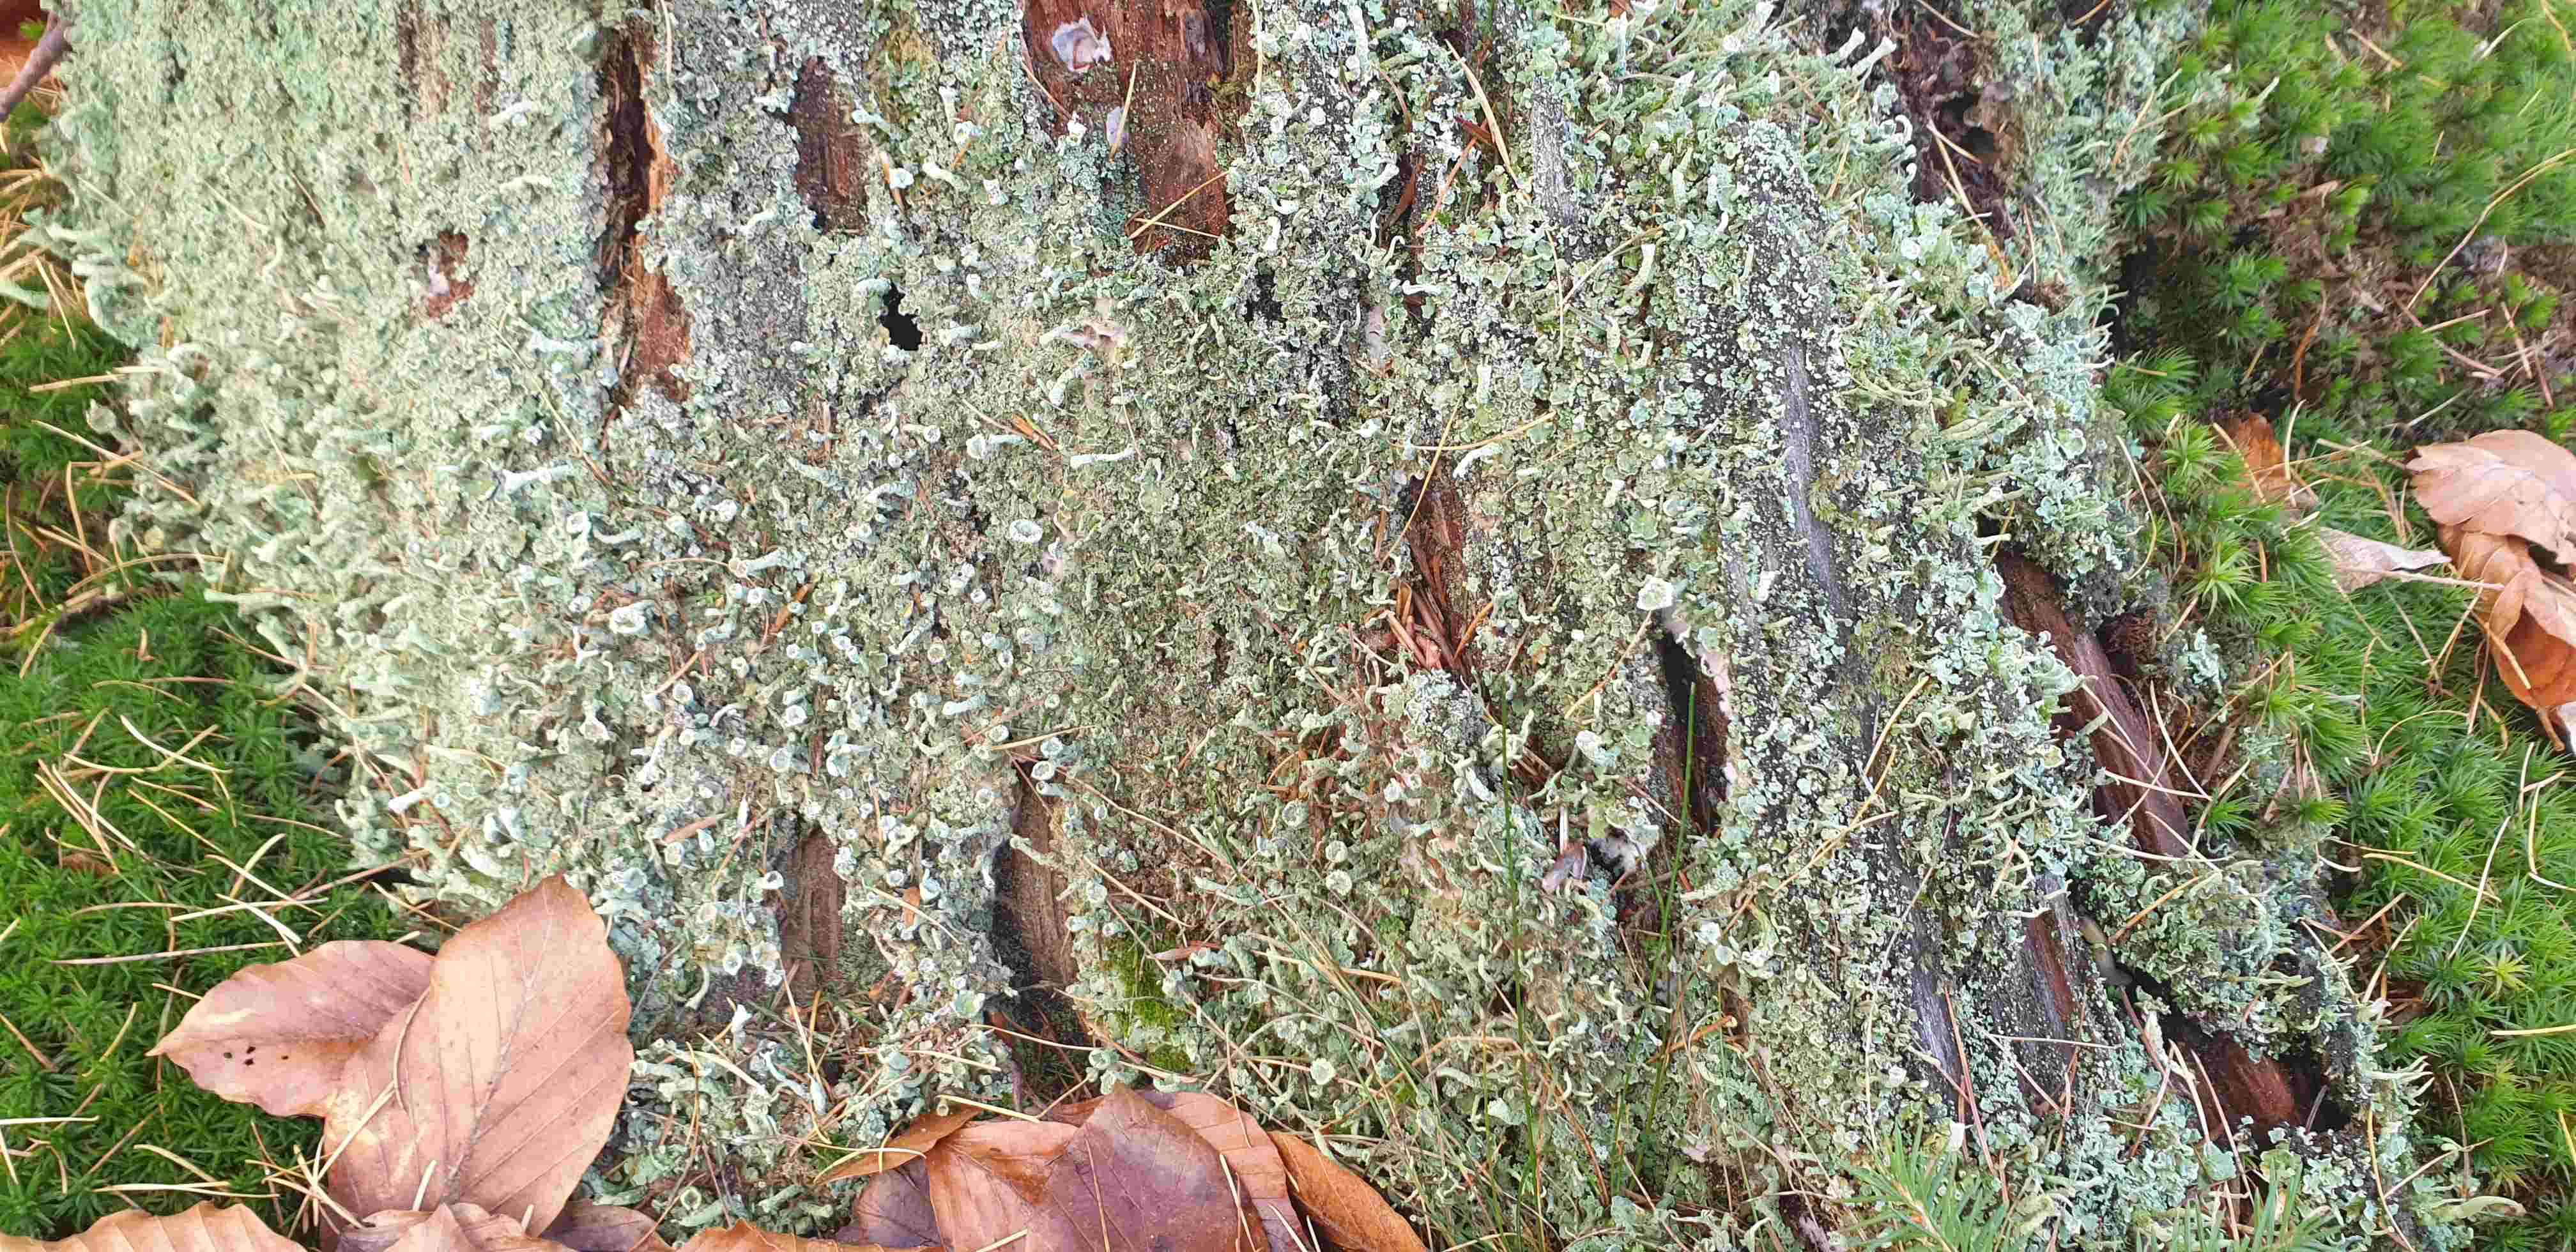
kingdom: Fungi
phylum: Ascomycota
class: Lecanoromycetes
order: Lecanorales
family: Cladoniaceae
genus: Cladonia
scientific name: Cladonia
